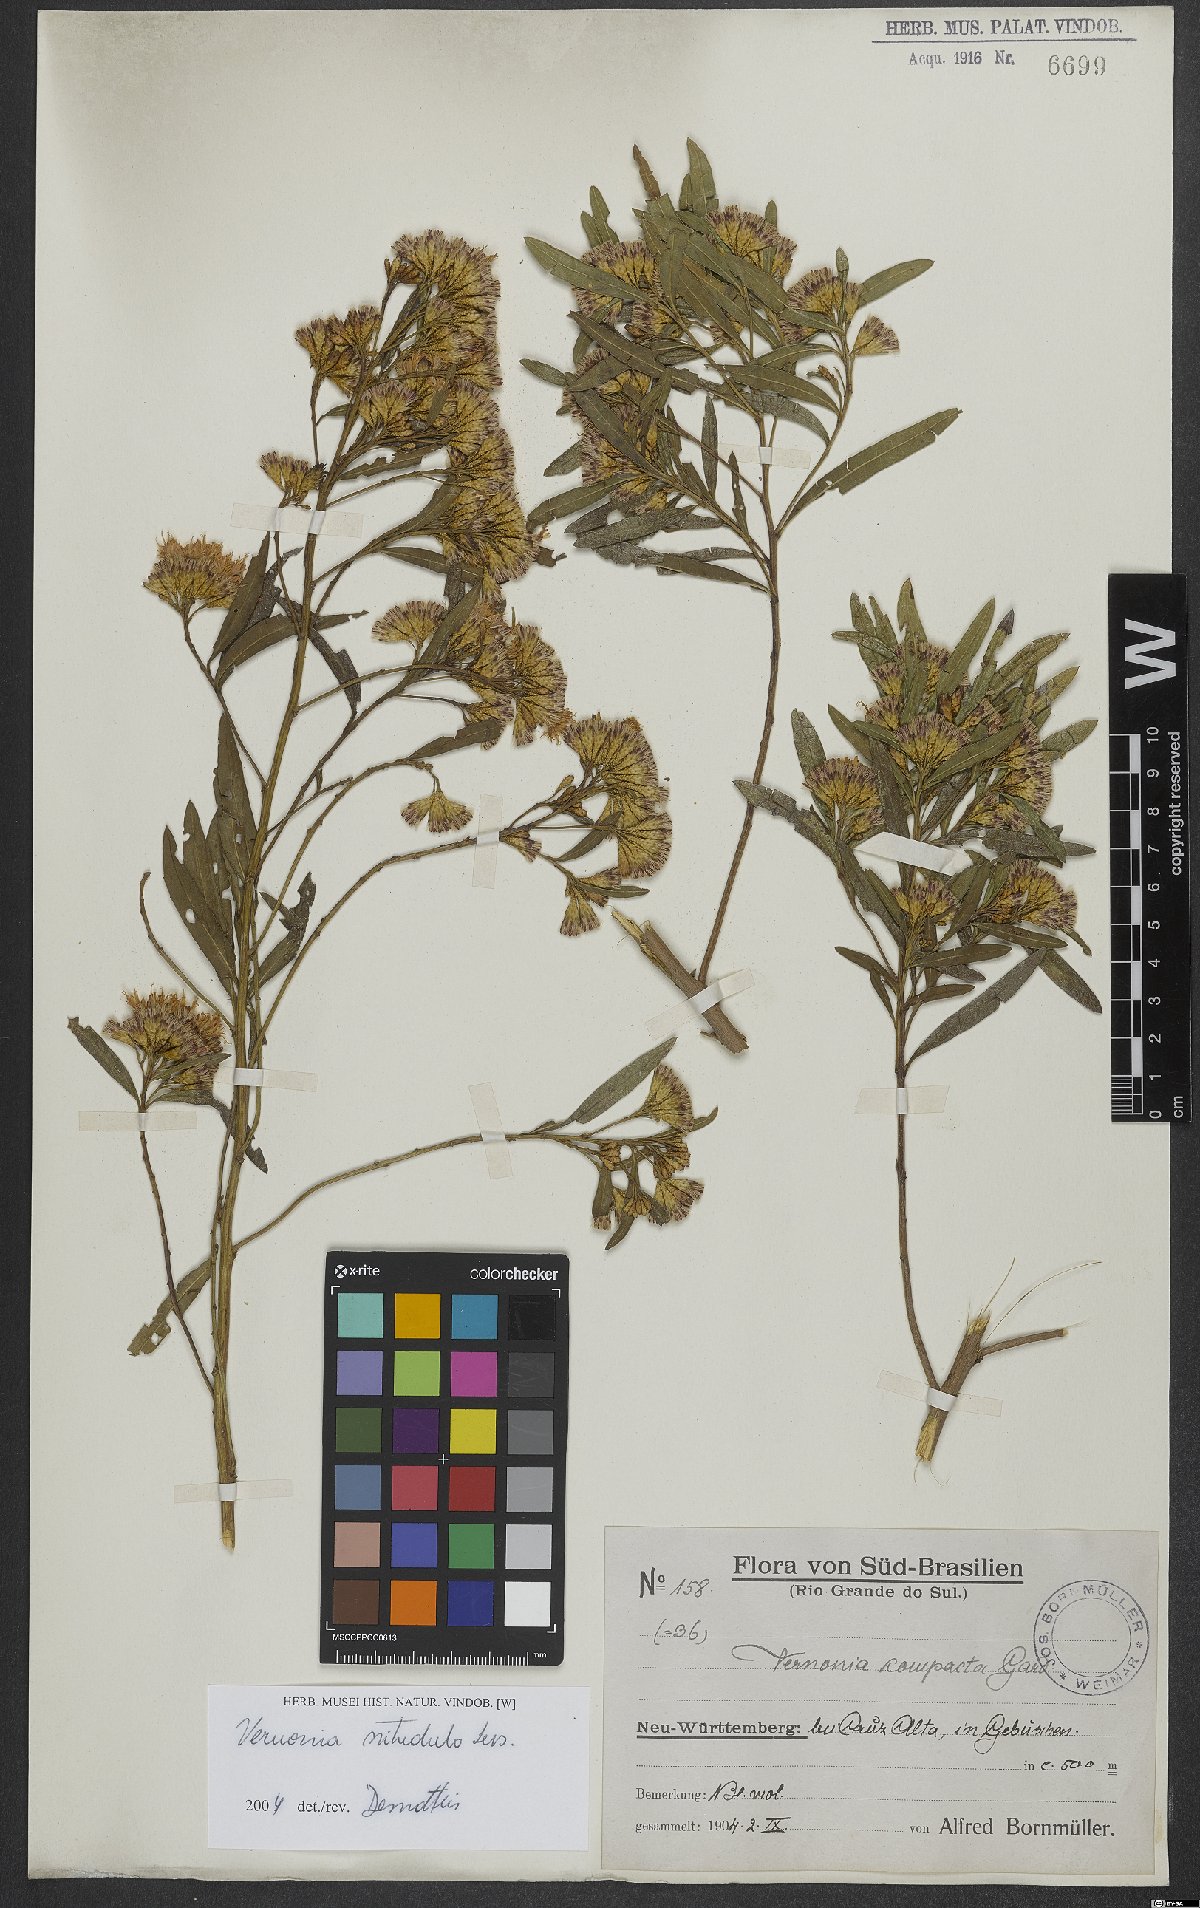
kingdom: Plantae
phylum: Tracheophyta
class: Magnoliopsida
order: Asterales
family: Asteraceae
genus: Vernonanthura
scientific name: Vernonanthura montevidensis
